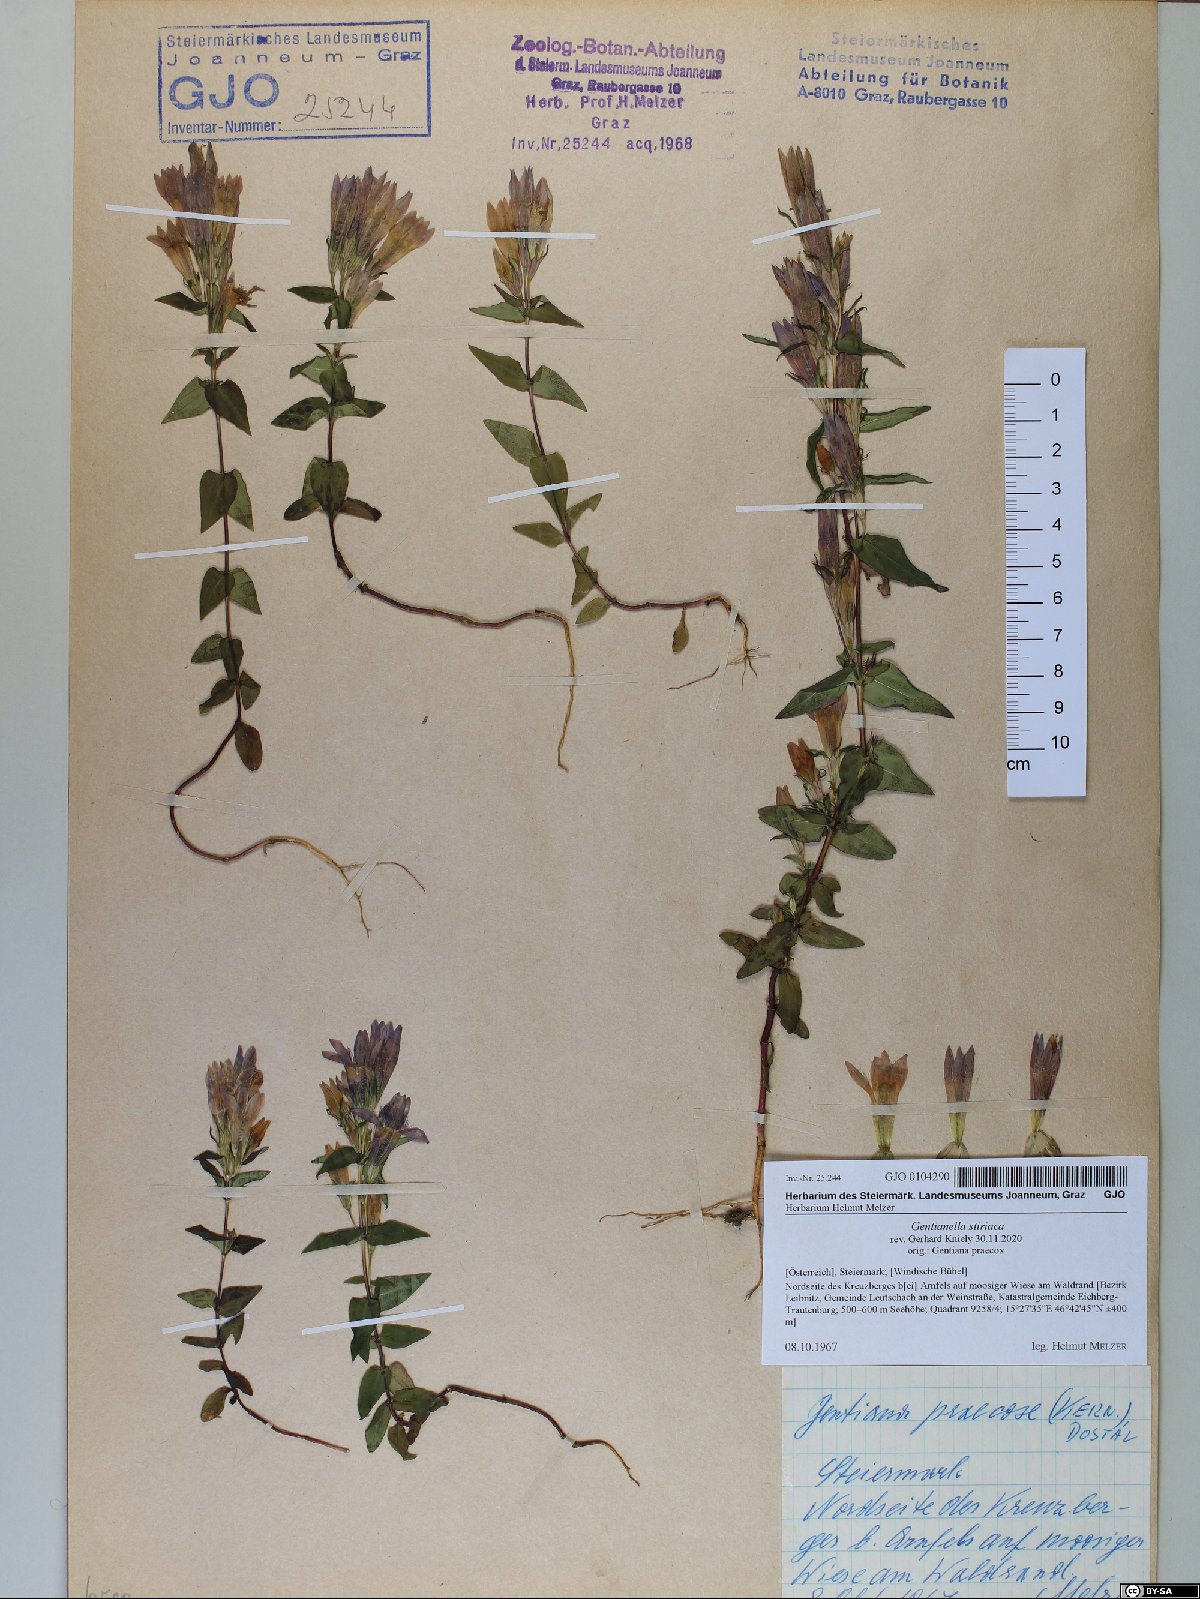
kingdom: Plantae
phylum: Tracheophyta
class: Magnoliopsida
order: Gentianales
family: Gentianaceae
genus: Gentianella
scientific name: Gentianella styriaca
